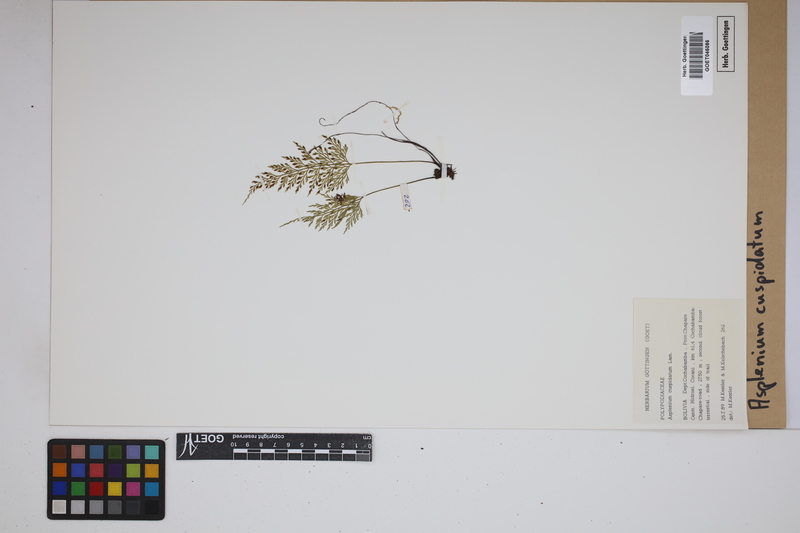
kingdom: Plantae
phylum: Tracheophyta
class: Polypodiopsida
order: Polypodiales
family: Aspleniaceae
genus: Asplenium
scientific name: Asplenium cuspidatum
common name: Eared spleenwort
